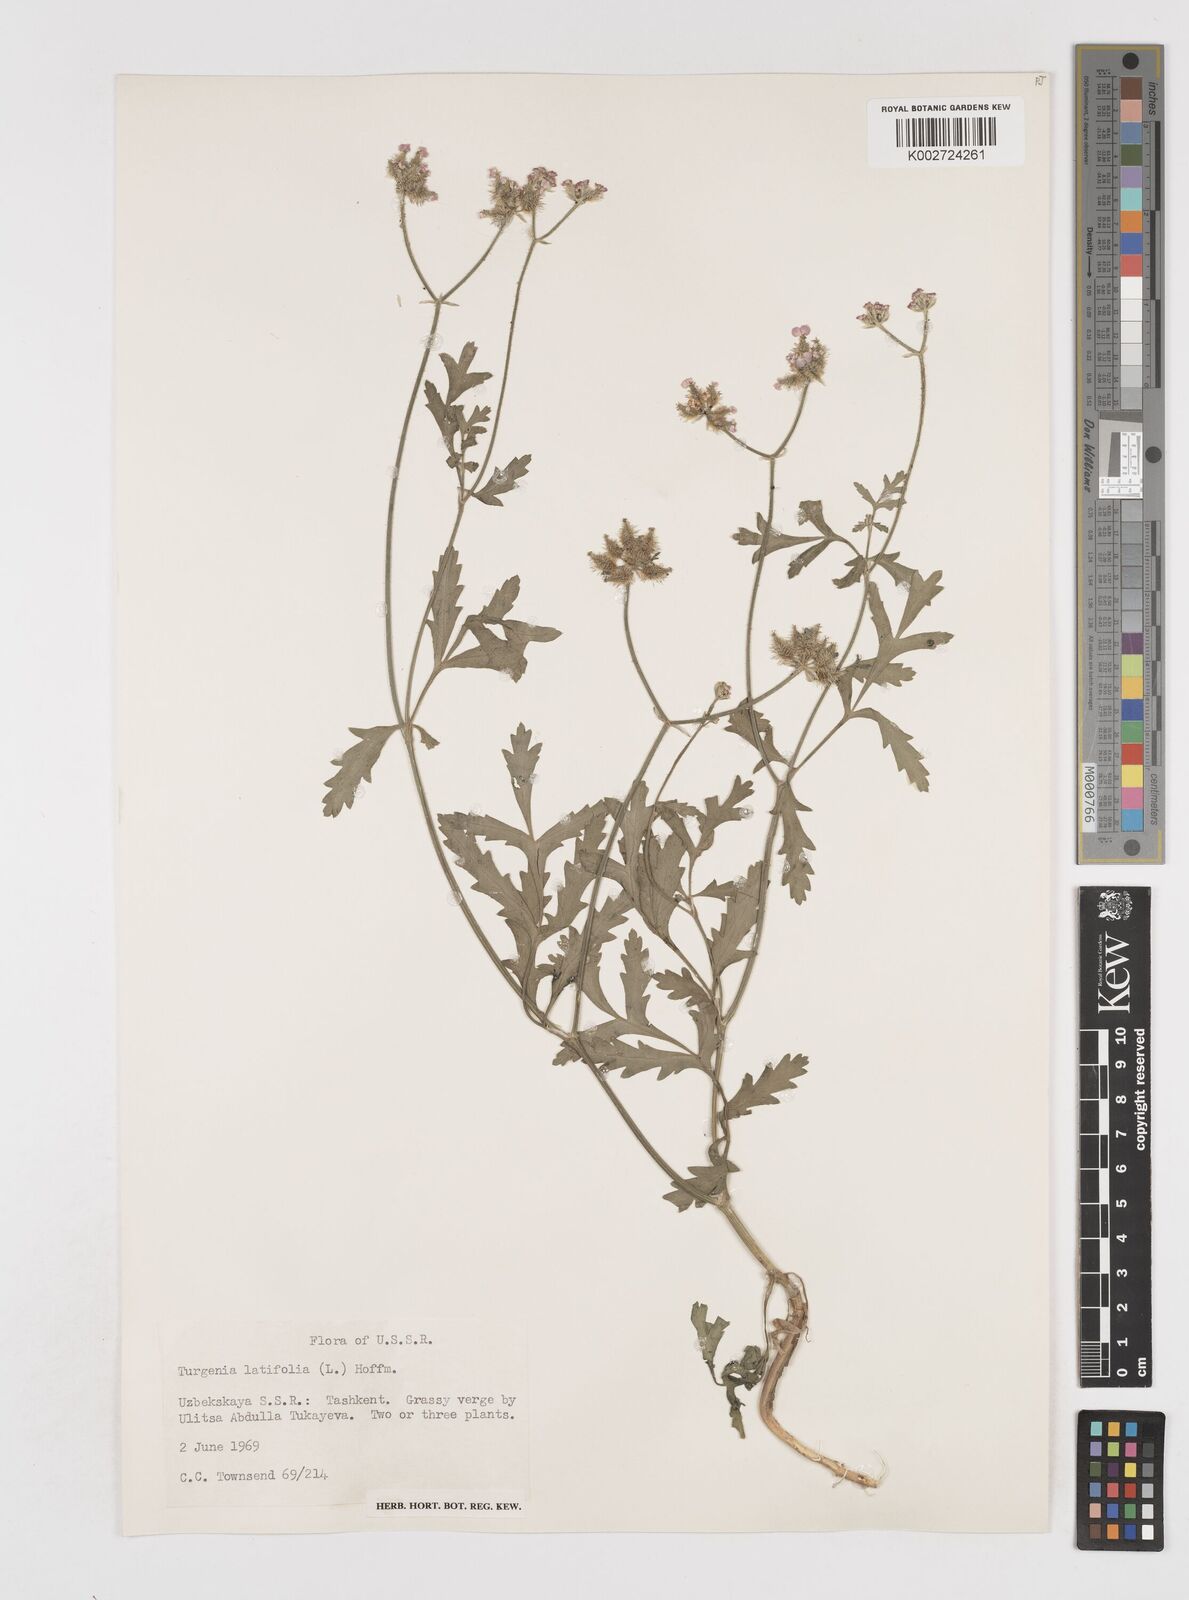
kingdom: Plantae
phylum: Tracheophyta
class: Magnoliopsida
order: Apiales
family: Apiaceae
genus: Turgenia
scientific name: Turgenia latifolia
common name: Greater bur-parsley
